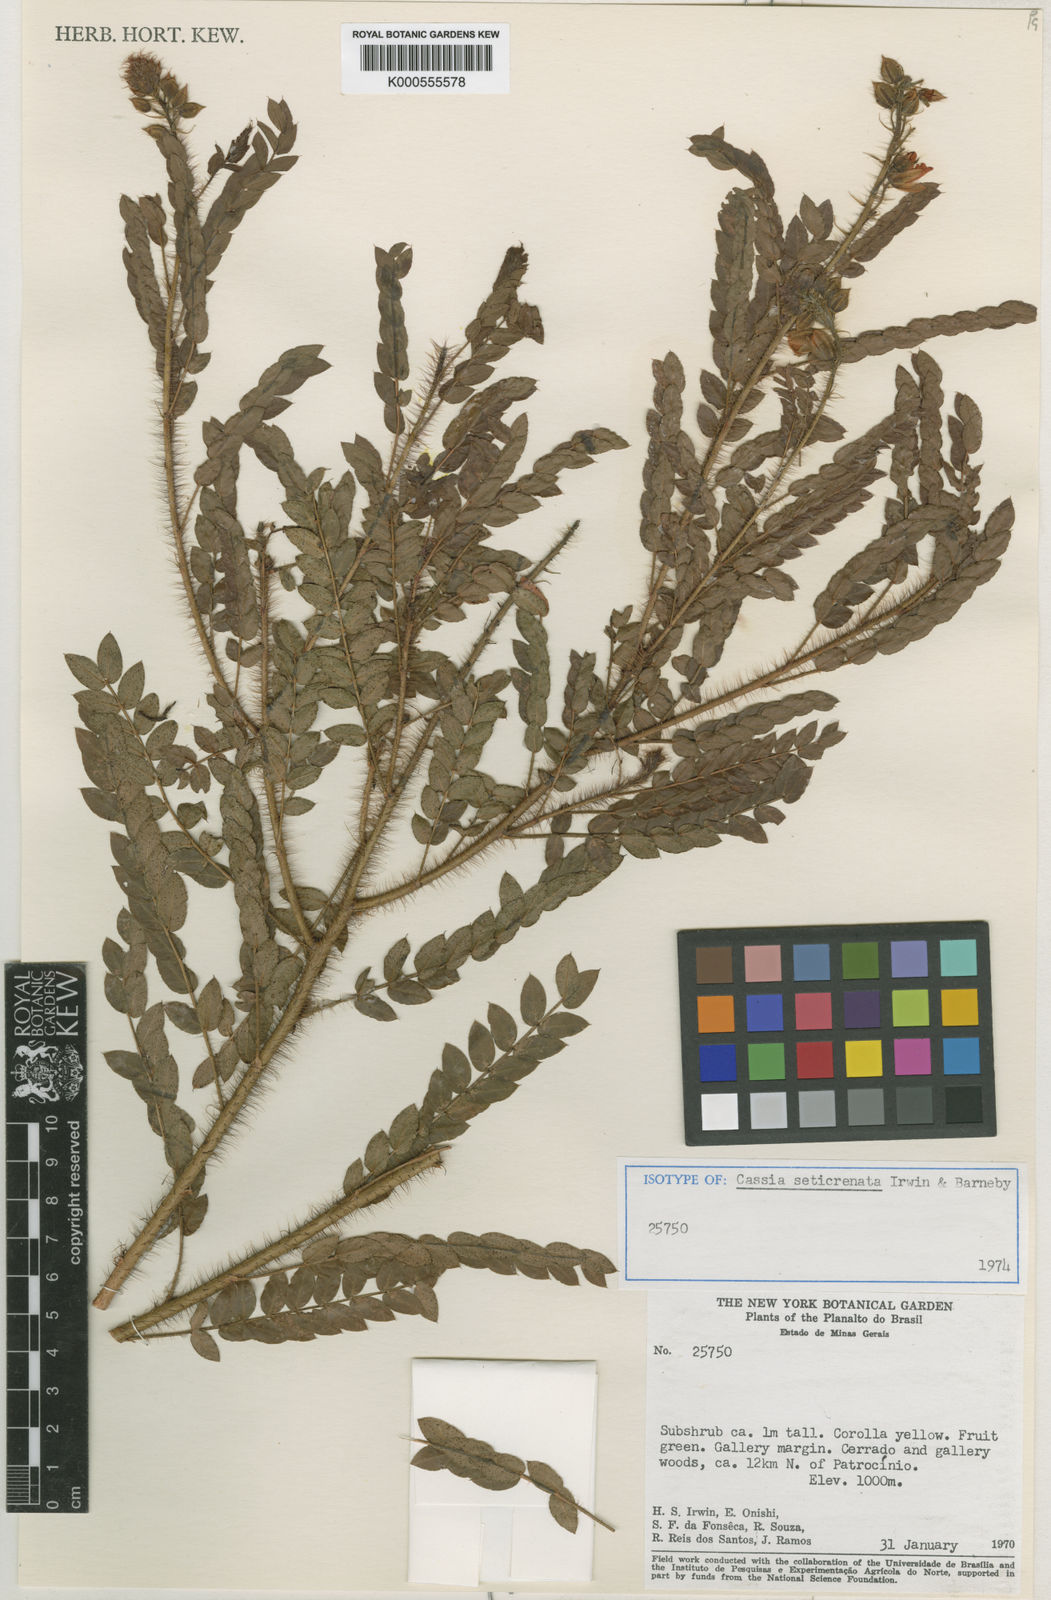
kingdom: Plantae
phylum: Tracheophyta
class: Magnoliopsida
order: Fabales
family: Fabaceae
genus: Chamaecrista
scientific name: Chamaecrista seticrenata
